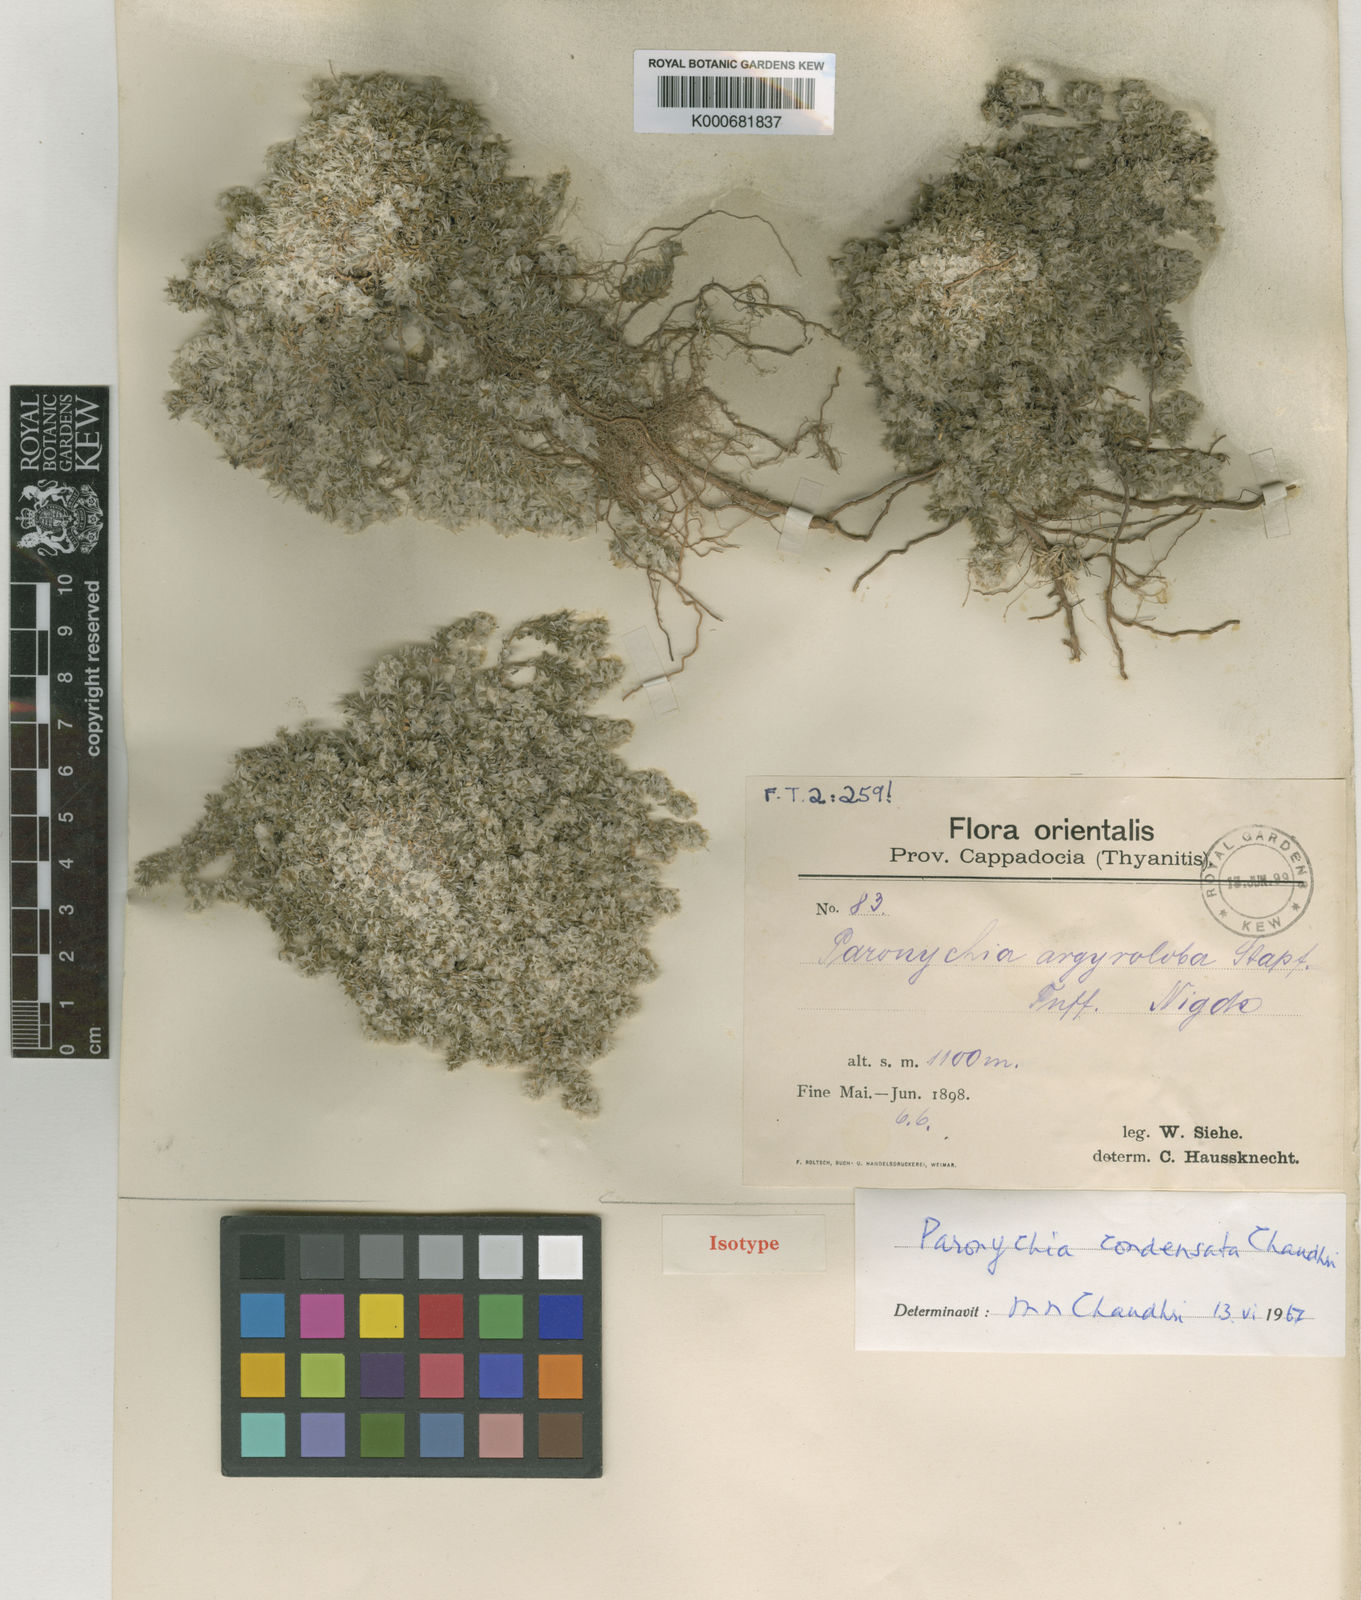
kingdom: Plantae
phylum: Tracheophyta
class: Magnoliopsida
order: Caryophyllales
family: Caryophyllaceae
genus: Paronychia
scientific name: Paronychia condensata
